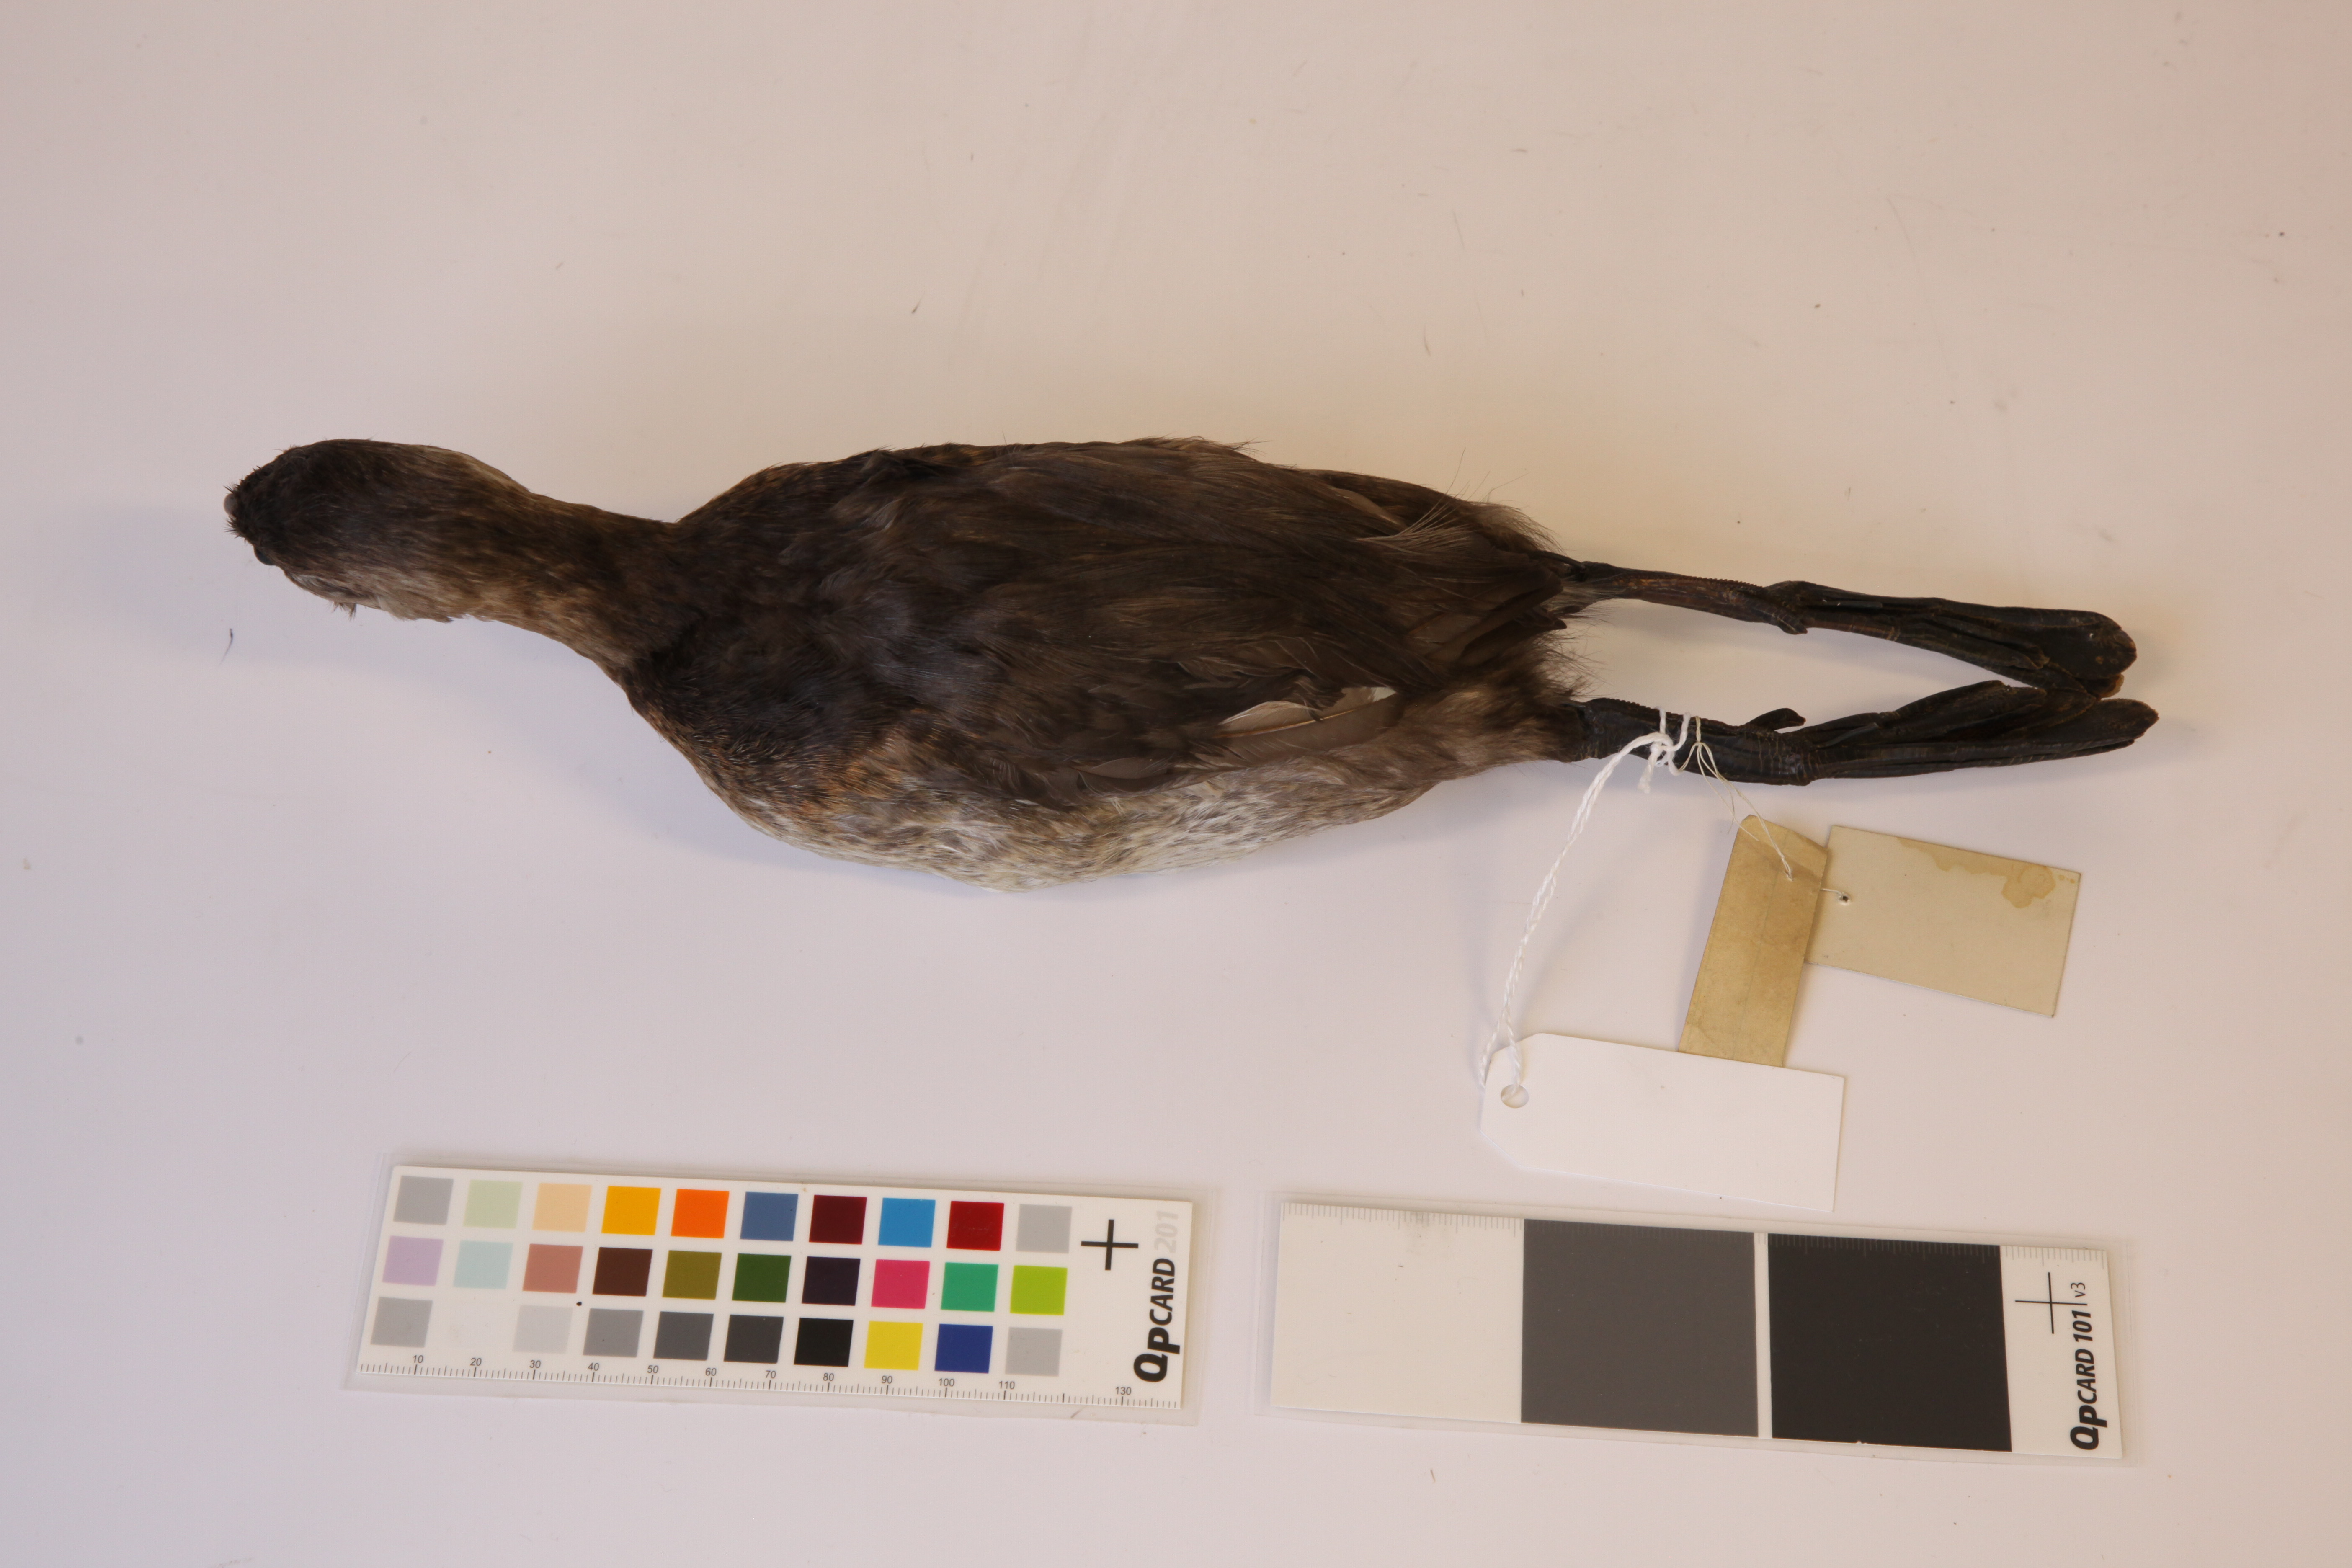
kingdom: Animalia
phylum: Chordata
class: Aves
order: Podicipediformes
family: Podicipedidae
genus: Podilymbus
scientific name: Podilymbus podiceps
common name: Pied-billed grebe
